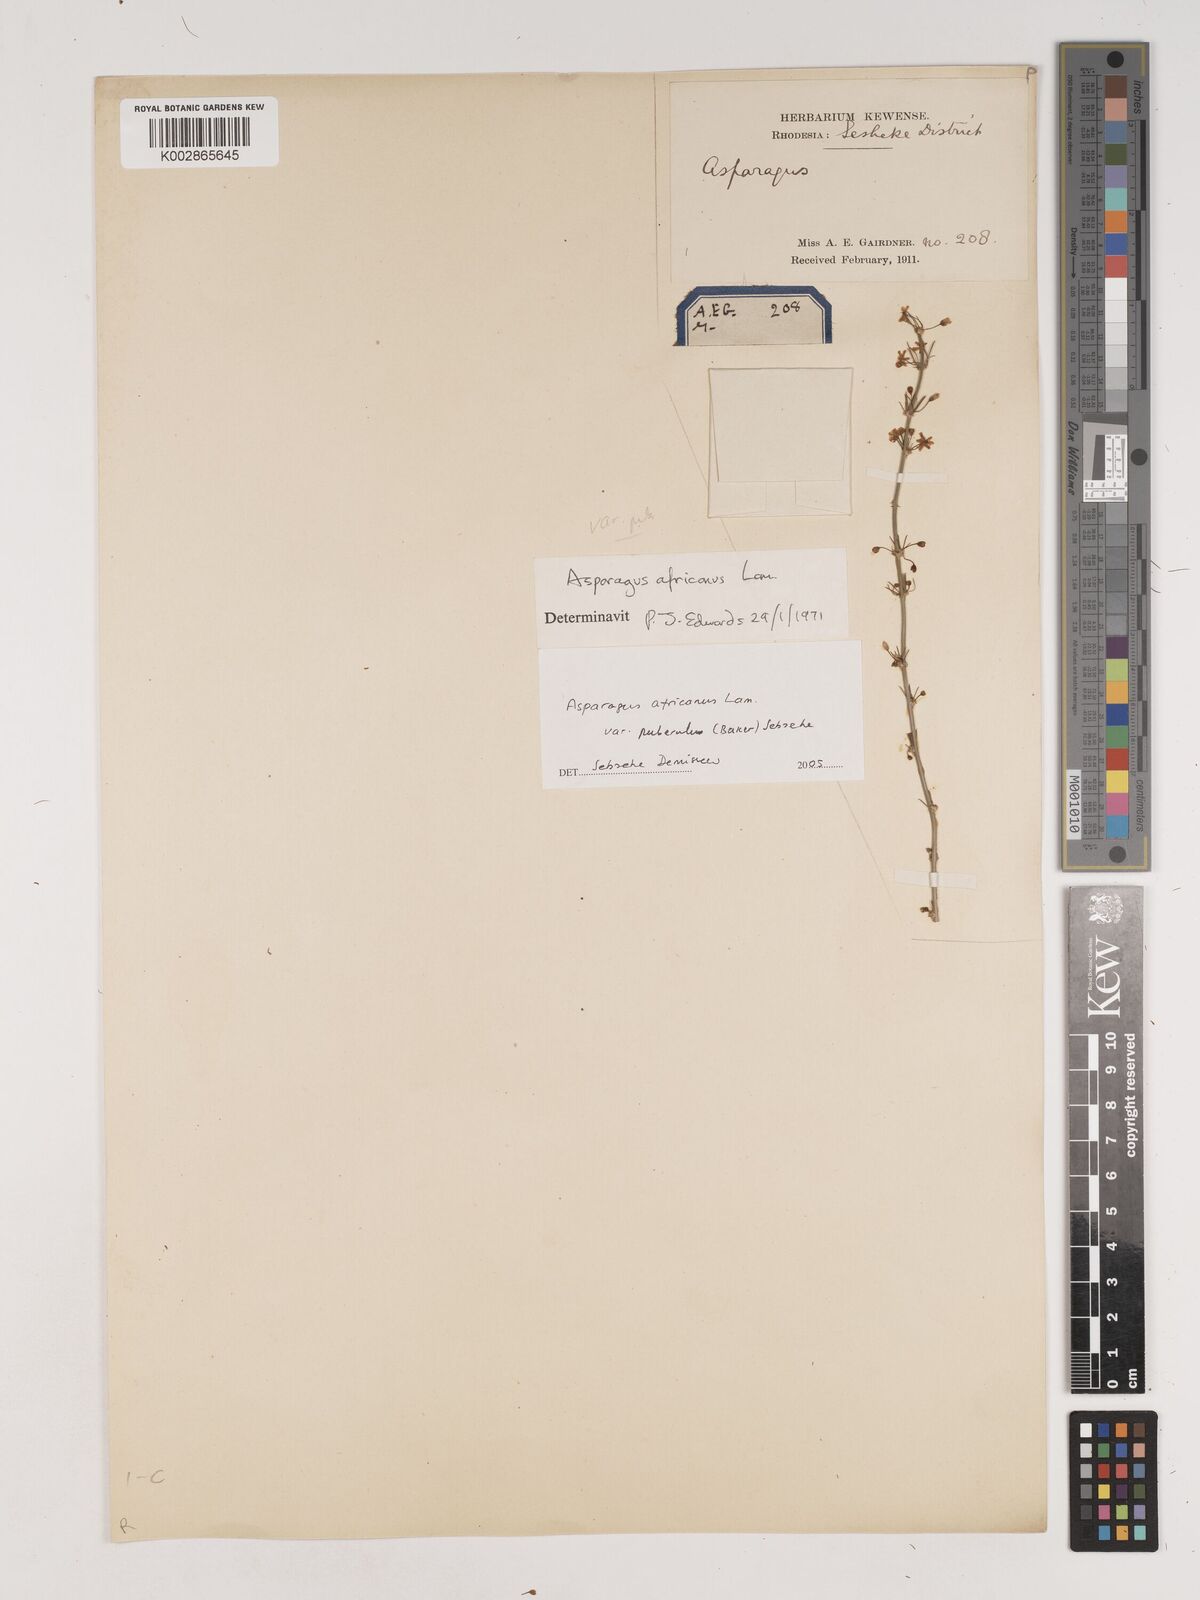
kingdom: Plantae
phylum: Tracheophyta
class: Liliopsida
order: Asparagales
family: Asparagaceae
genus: Asparagus
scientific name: Asparagus africanus
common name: Asparagus-fern
